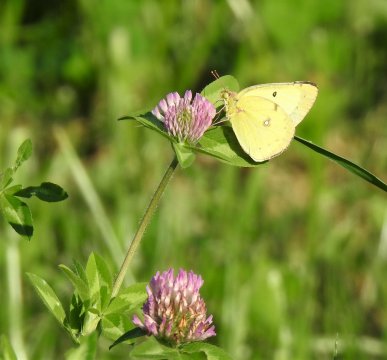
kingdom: Animalia
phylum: Arthropoda
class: Insecta
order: Lepidoptera
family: Pieridae
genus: Colias
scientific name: Colias philodice
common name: Clouded Sulphur
